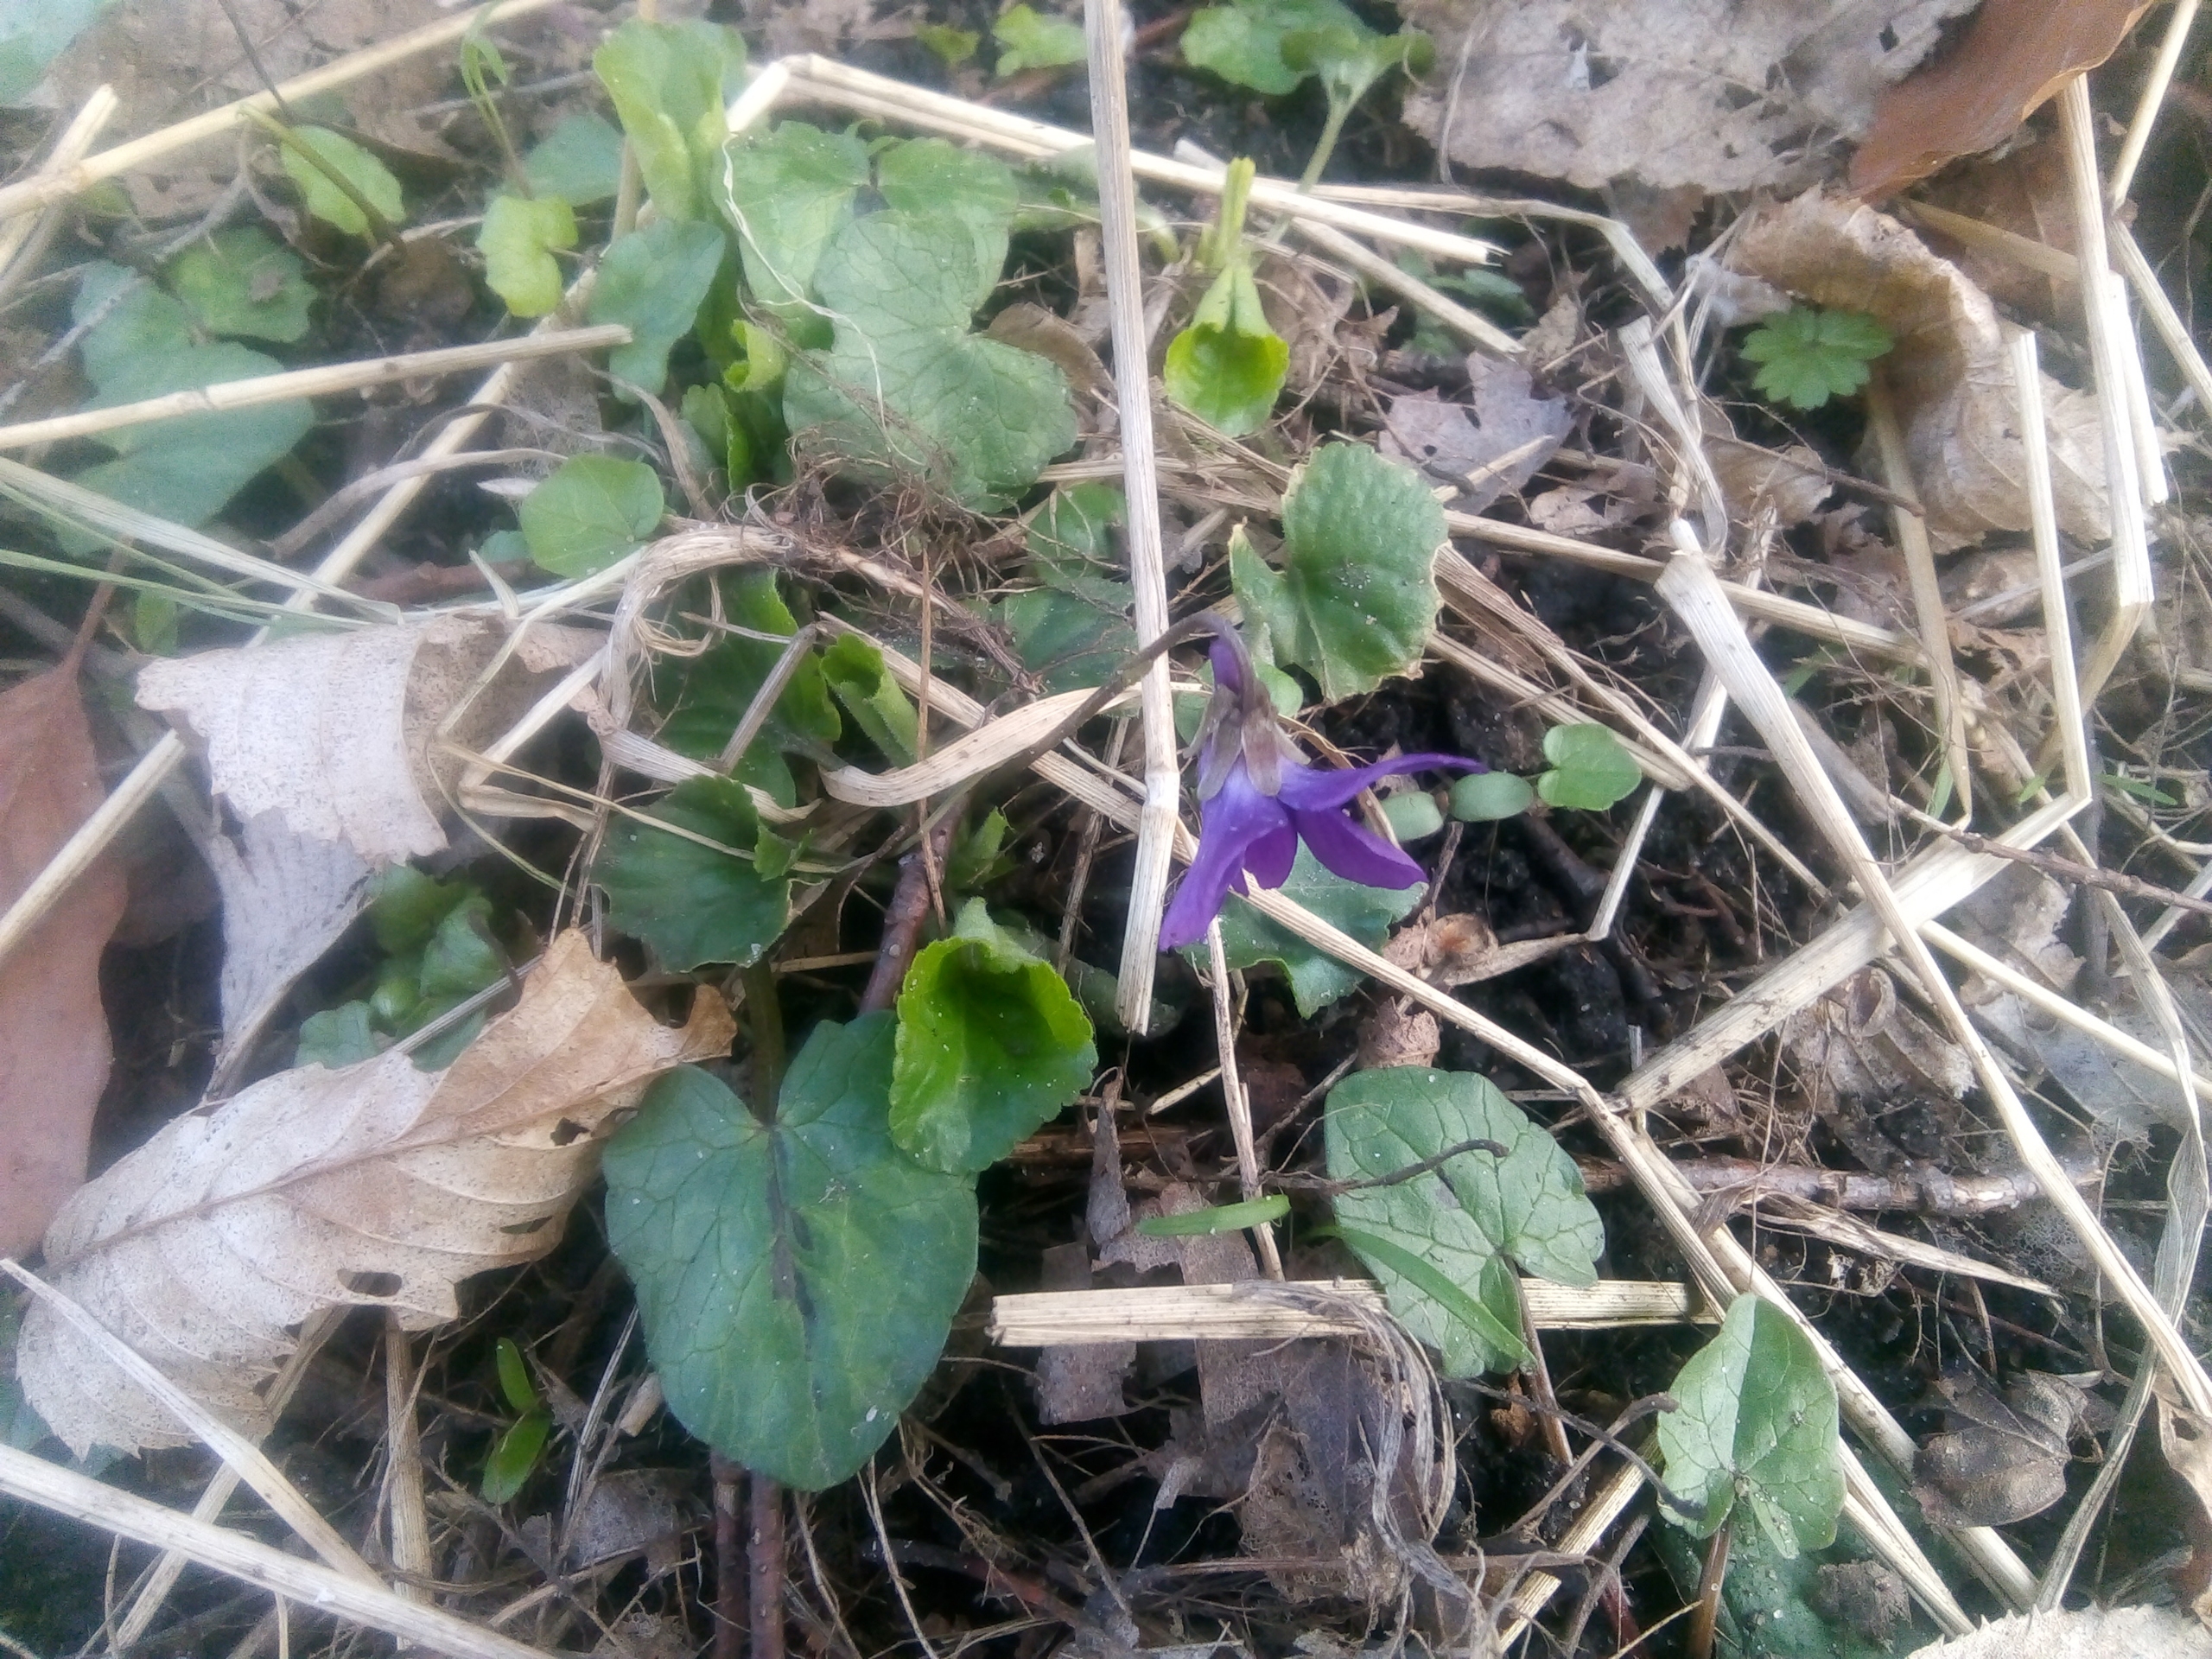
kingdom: Plantae
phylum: Tracheophyta
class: Magnoliopsida
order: Malpighiales
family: Violaceae
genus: Viola
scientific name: Viola odorata
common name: Marts-viol
